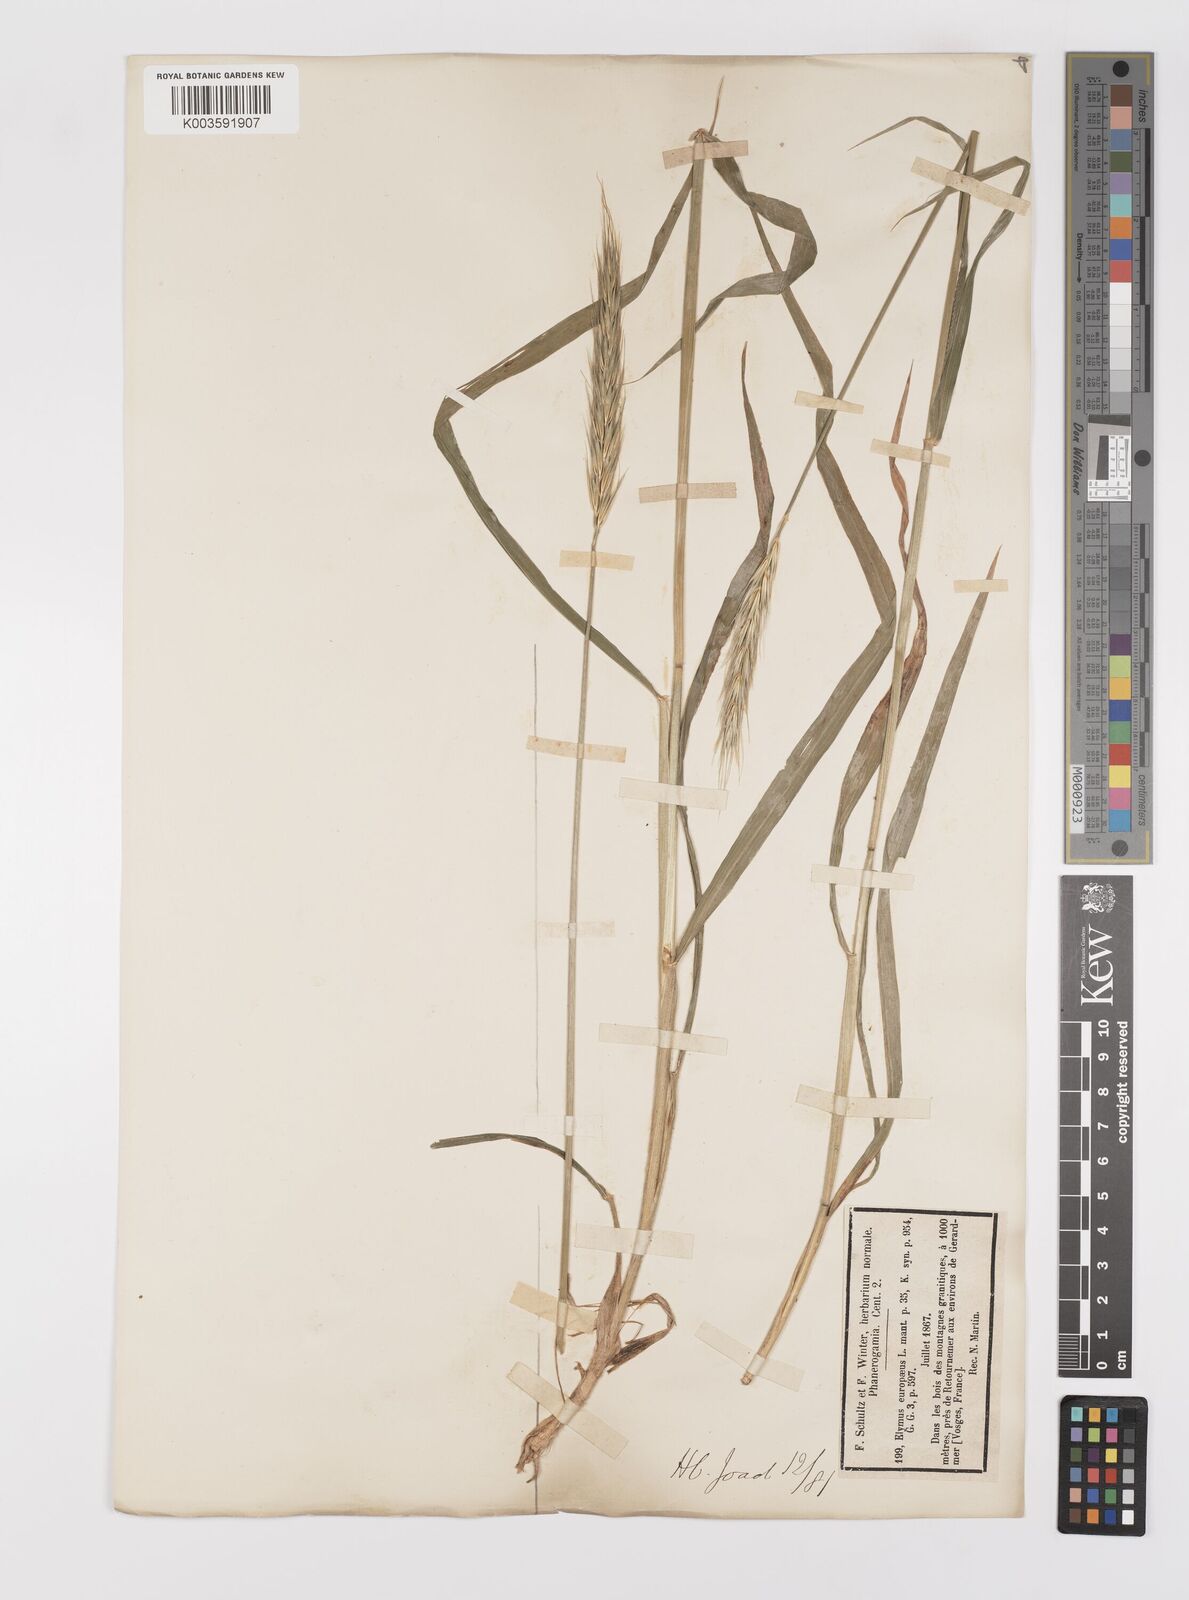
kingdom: Plantae
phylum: Tracheophyta
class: Liliopsida
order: Poales
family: Poaceae
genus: Hordelymus
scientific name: Hordelymus europaeus
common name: Wood-barley
